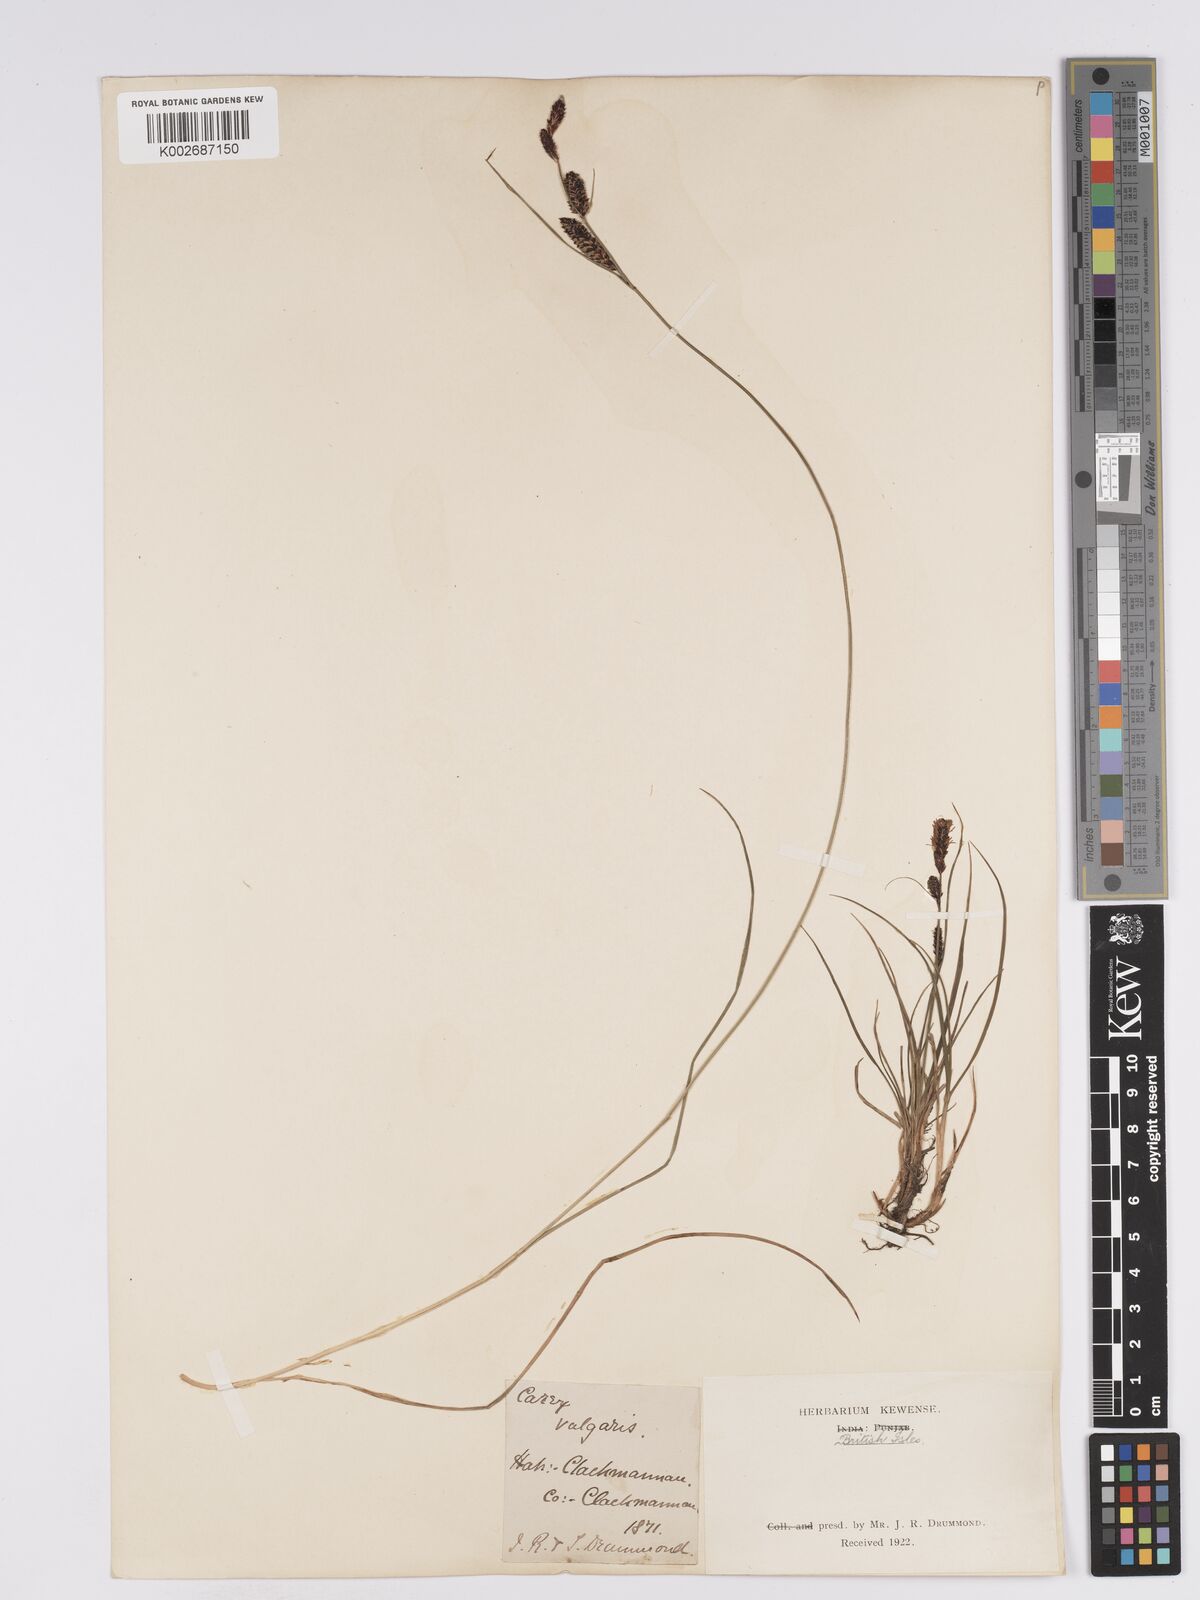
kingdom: Plantae
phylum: Tracheophyta
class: Liliopsida
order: Poales
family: Cyperaceae
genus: Carex
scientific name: Carex nigra
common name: Common sedge
